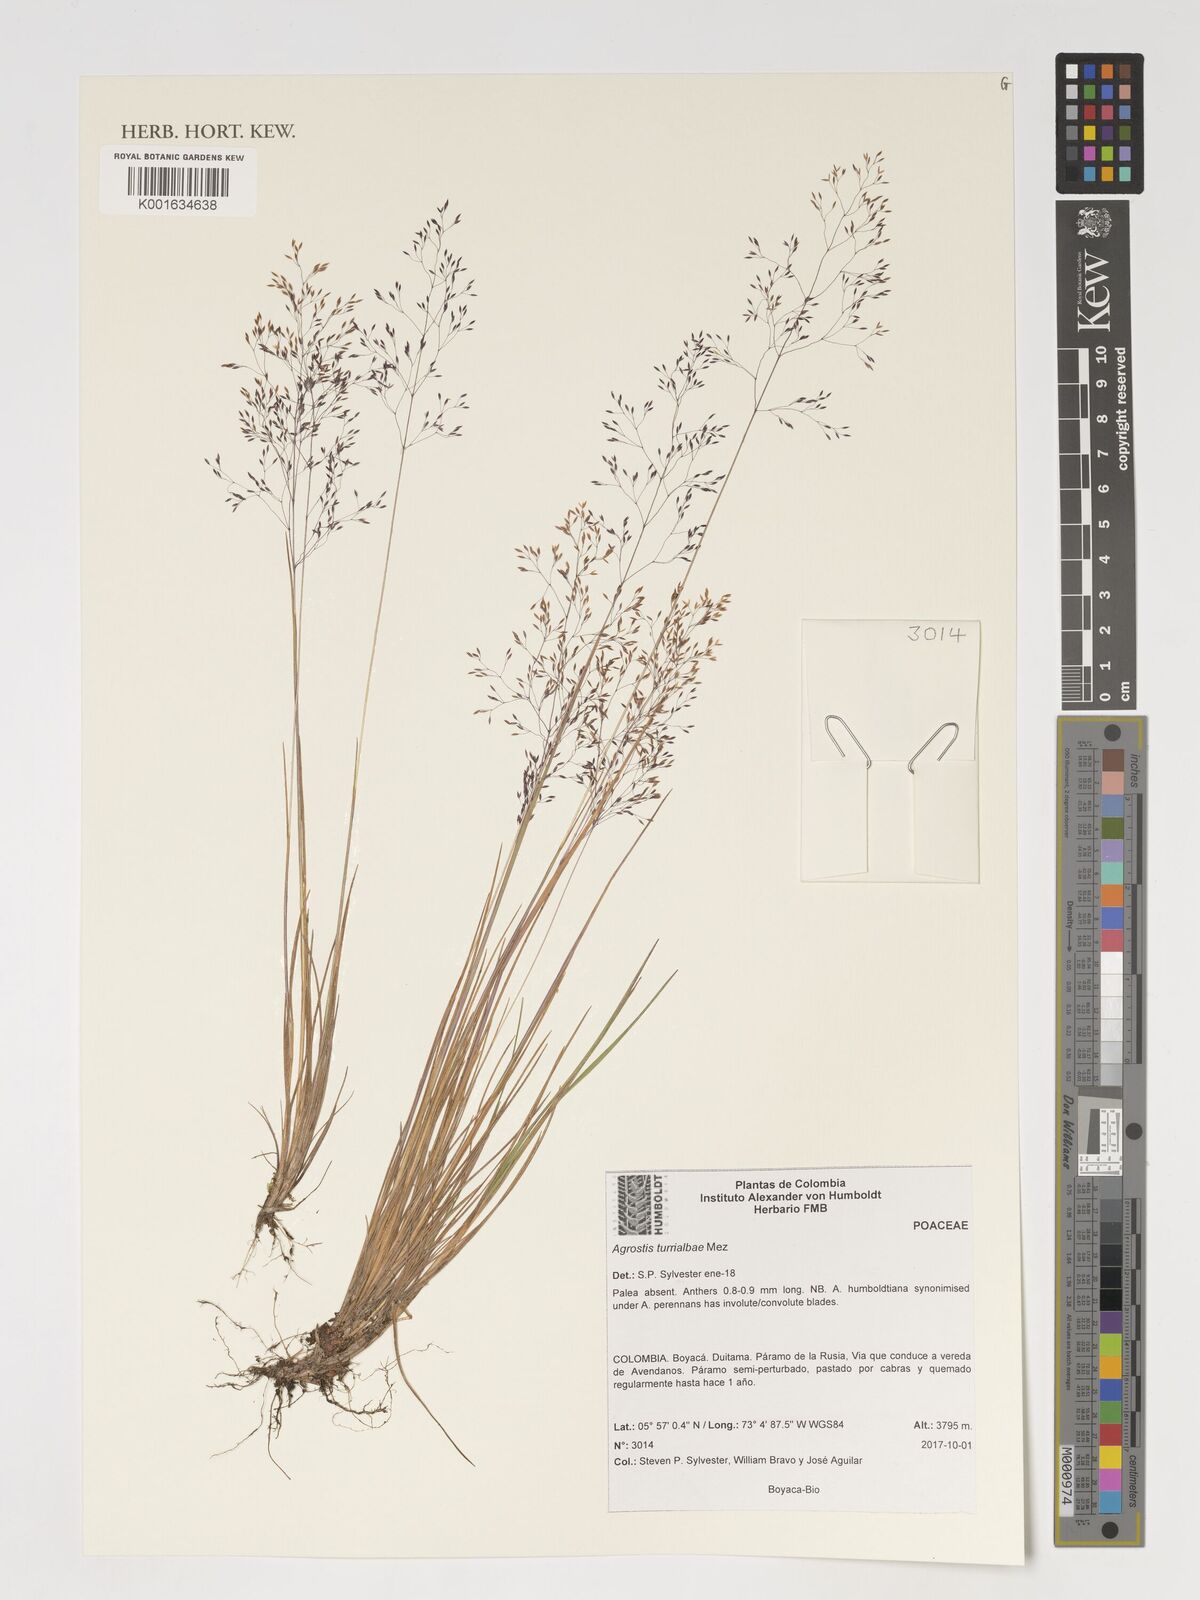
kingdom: Plantae
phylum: Tracheophyta
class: Liliopsida
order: Poales
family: Poaceae
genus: Agrostis
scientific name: Agrostis turrialbae
